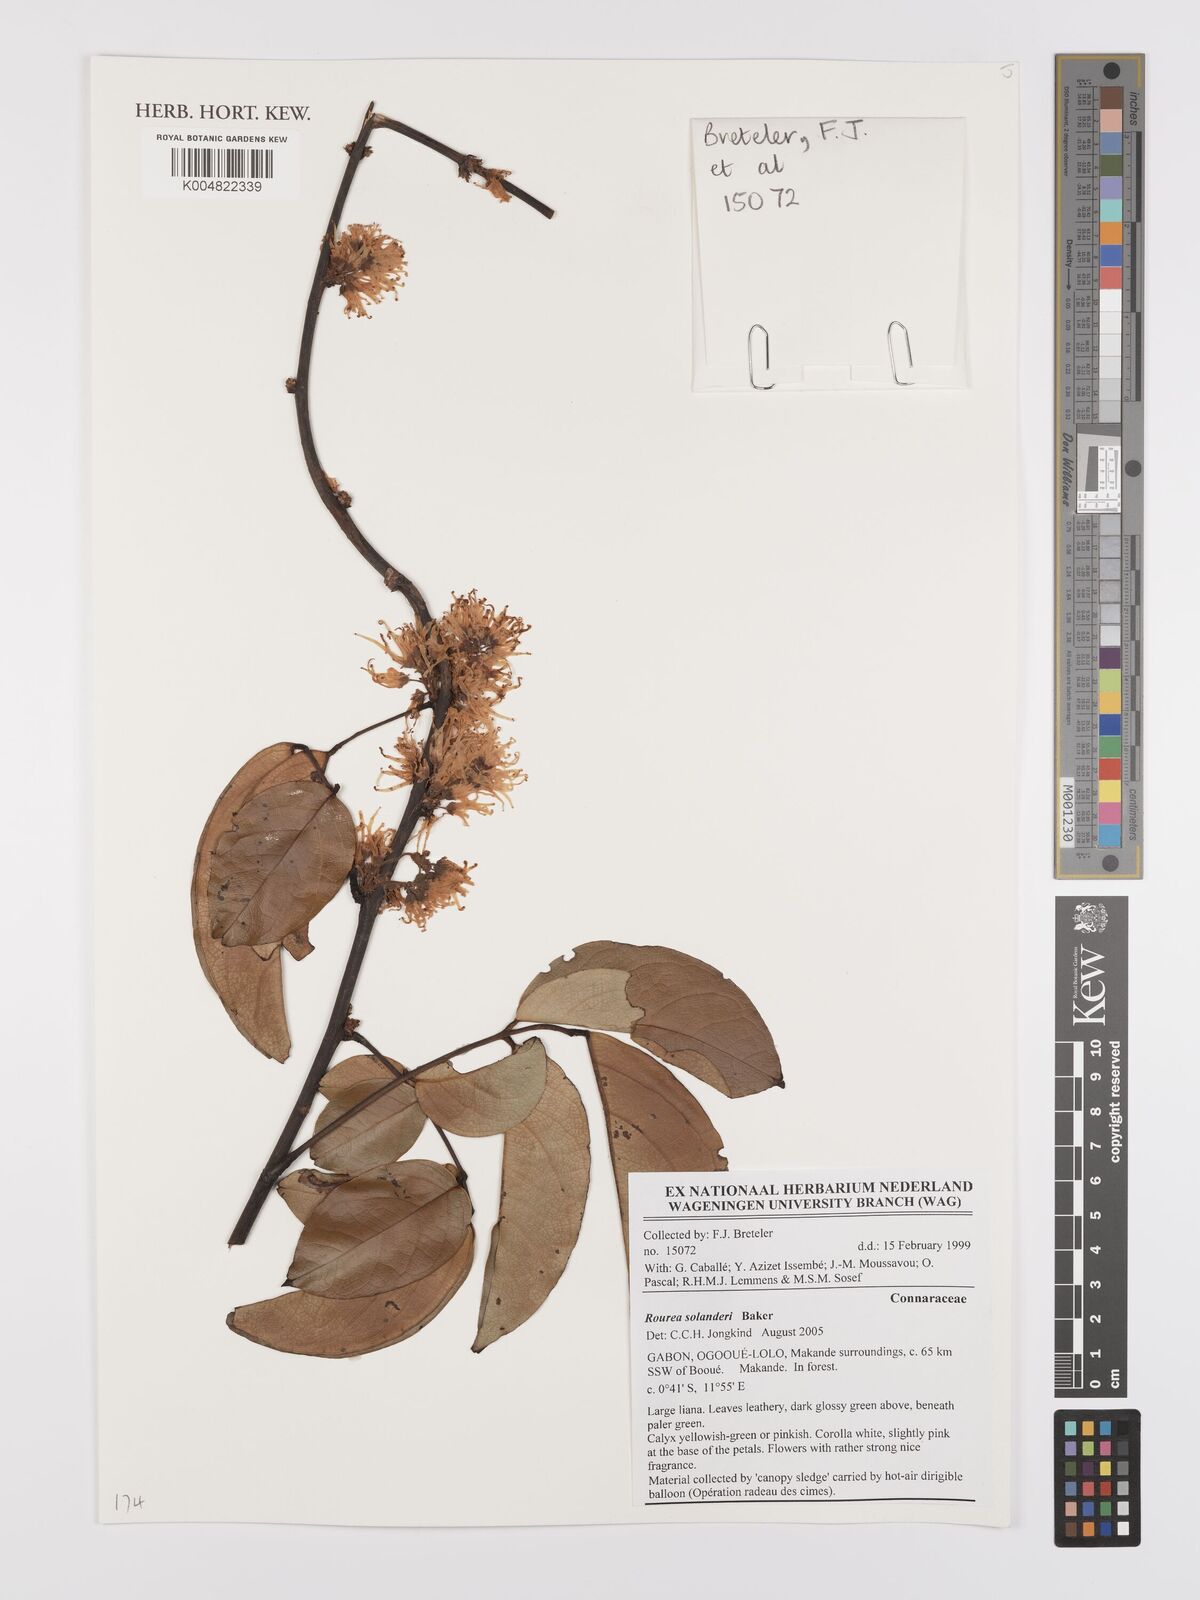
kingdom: Plantae
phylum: Tracheophyta
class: Magnoliopsida
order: Oxalidales
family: Connaraceae
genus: Rourea
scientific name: Rourea solanderi
